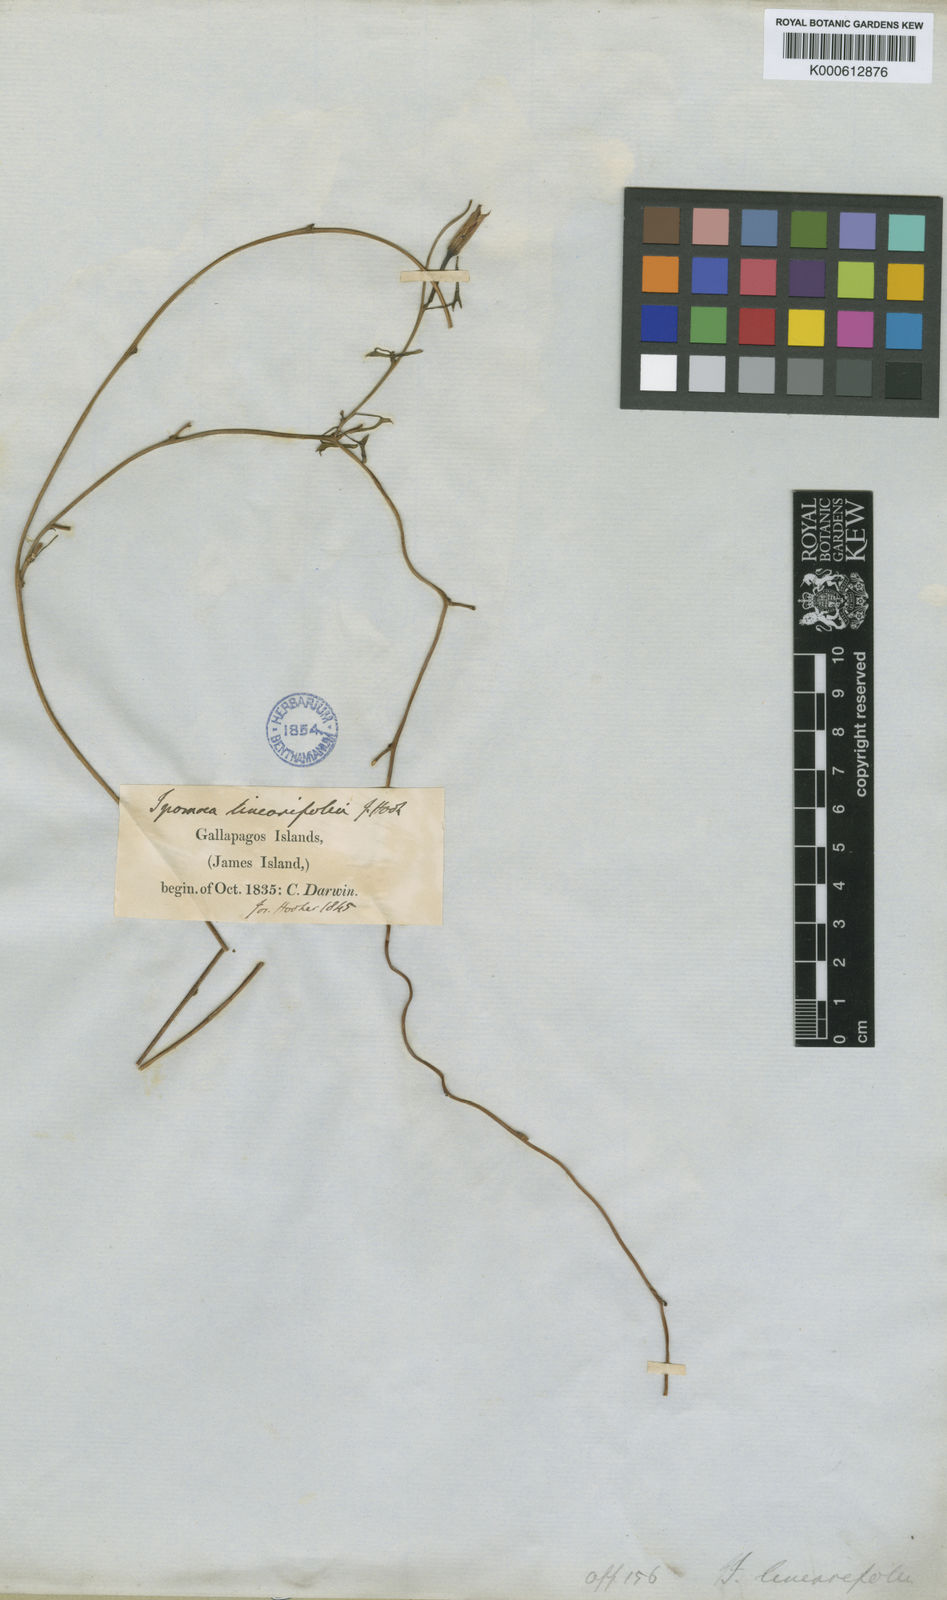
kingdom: Plantae
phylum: Tracheophyta
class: Magnoliopsida
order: Solanales
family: Convolvulaceae
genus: Ipomoea
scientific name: Ipomoea incarnata
